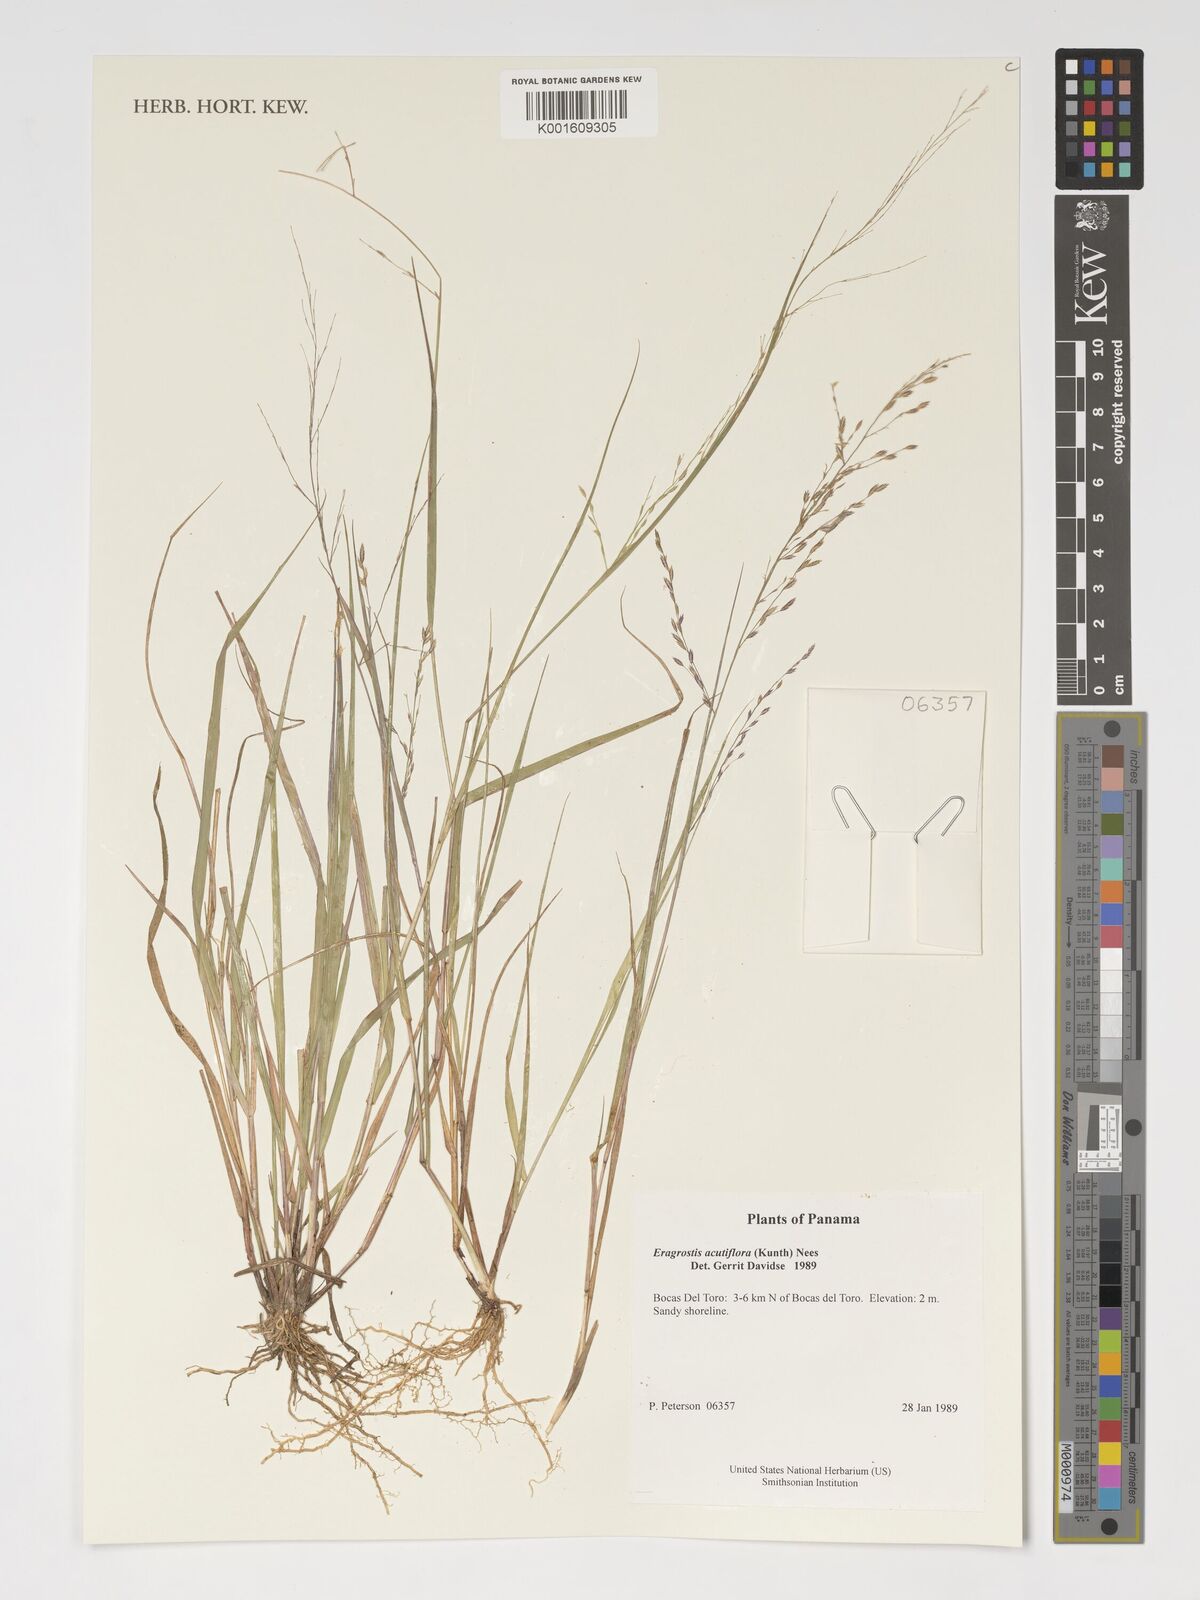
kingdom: Plantae
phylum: Tracheophyta
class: Liliopsida
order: Poales
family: Poaceae
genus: Eragrostis
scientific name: Eragrostis acutiflora
